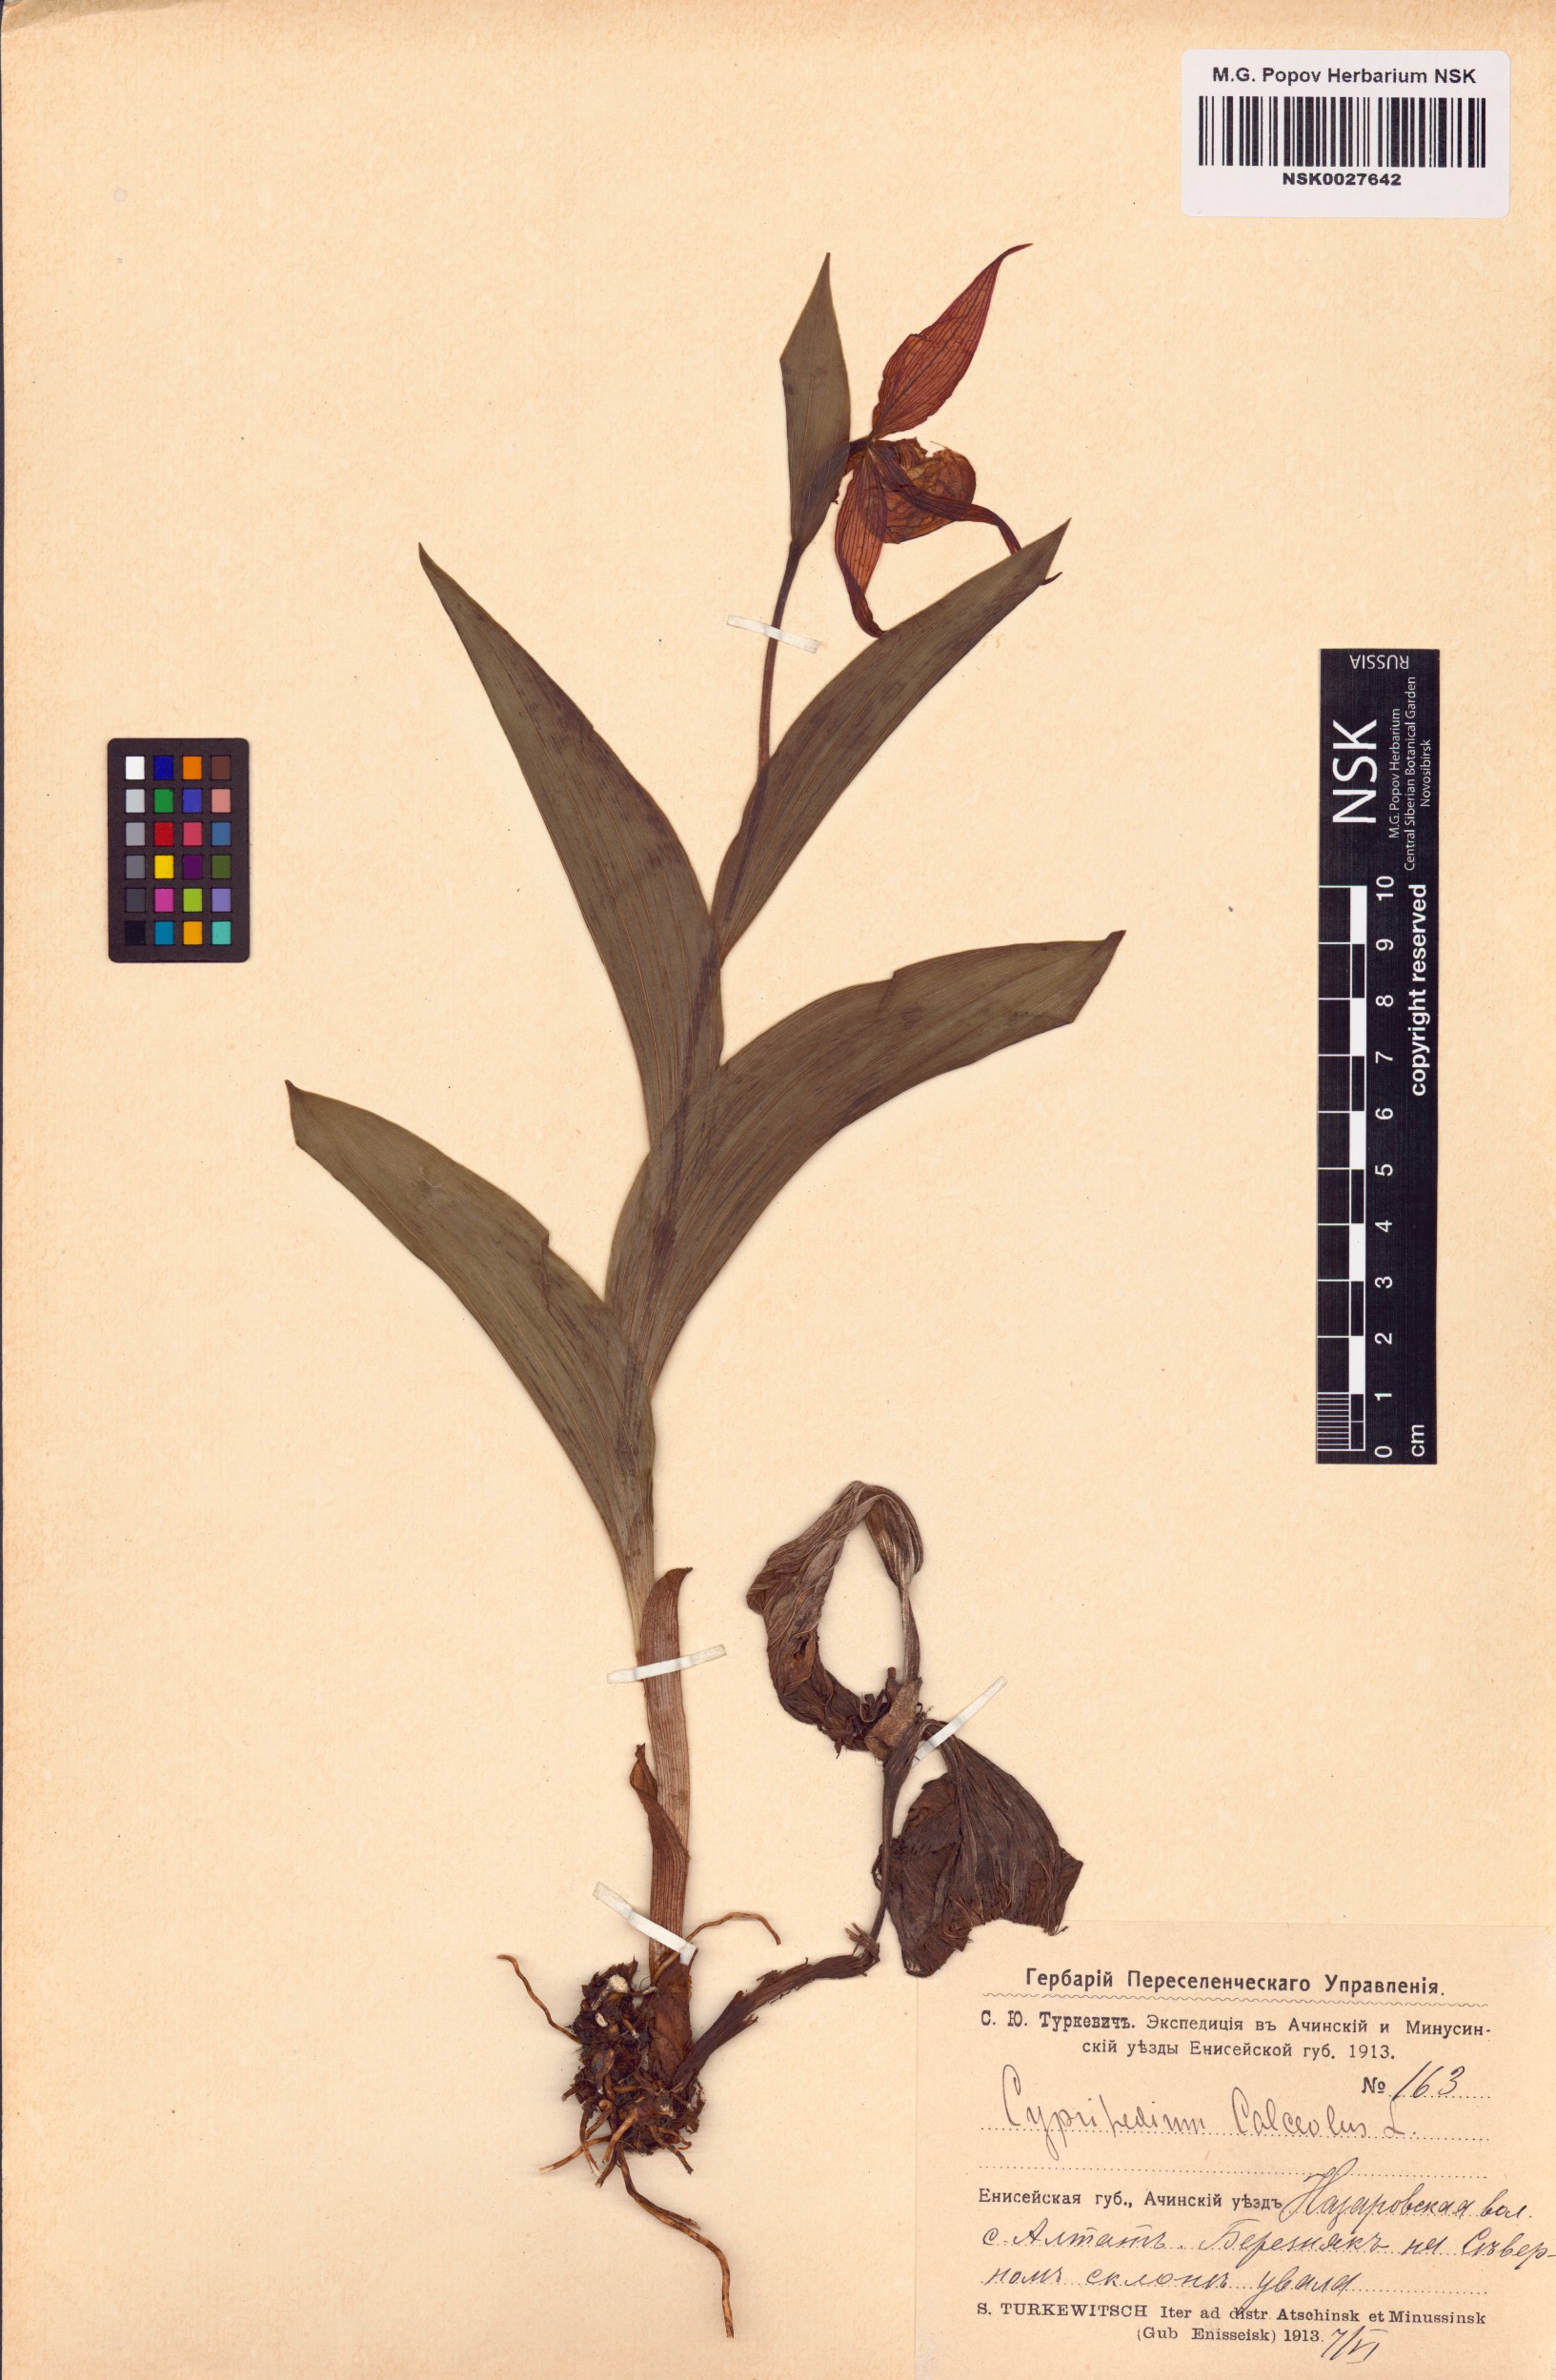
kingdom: Plantae
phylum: Tracheophyta
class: Liliopsida
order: Asparagales
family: Orchidaceae
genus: Cypripedium
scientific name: Cypripedium calceolus
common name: Lady's-slipper
